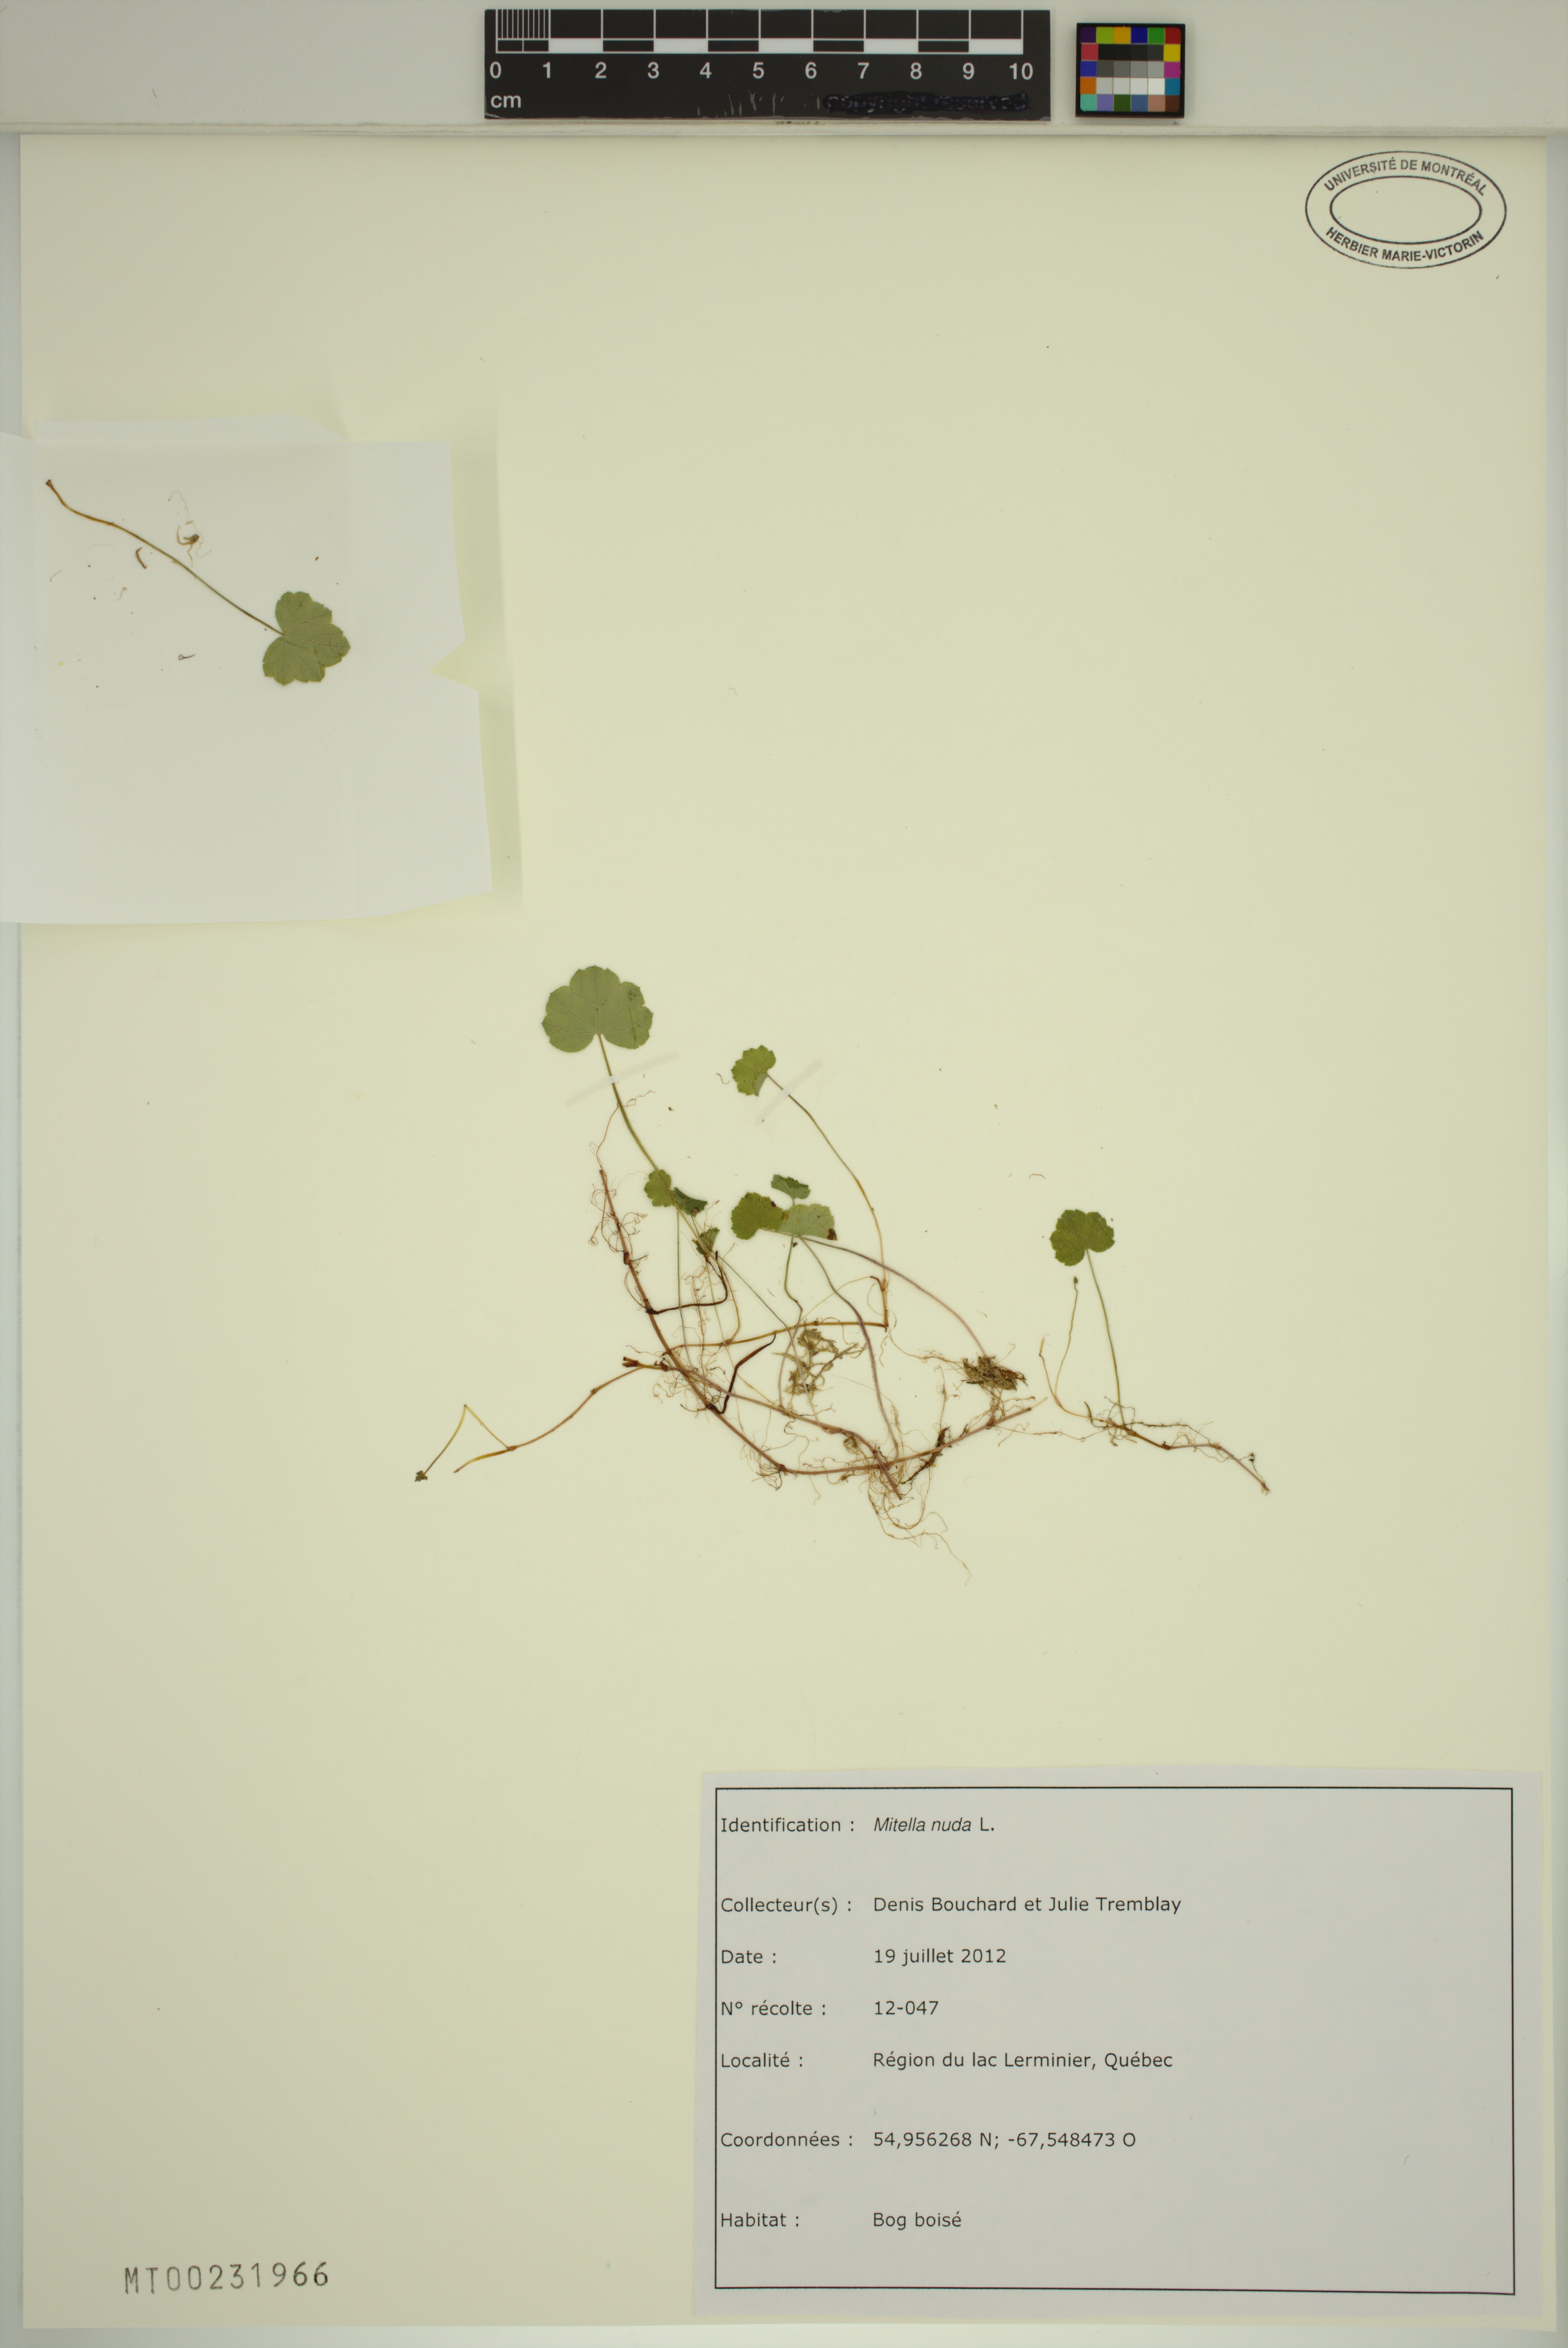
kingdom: Plantae
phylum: Tracheophyta
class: Magnoliopsida
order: Saxifragales
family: Saxifragaceae
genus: Mitella
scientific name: Mitella nuda
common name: Bare-stemmed bishop's-cap
